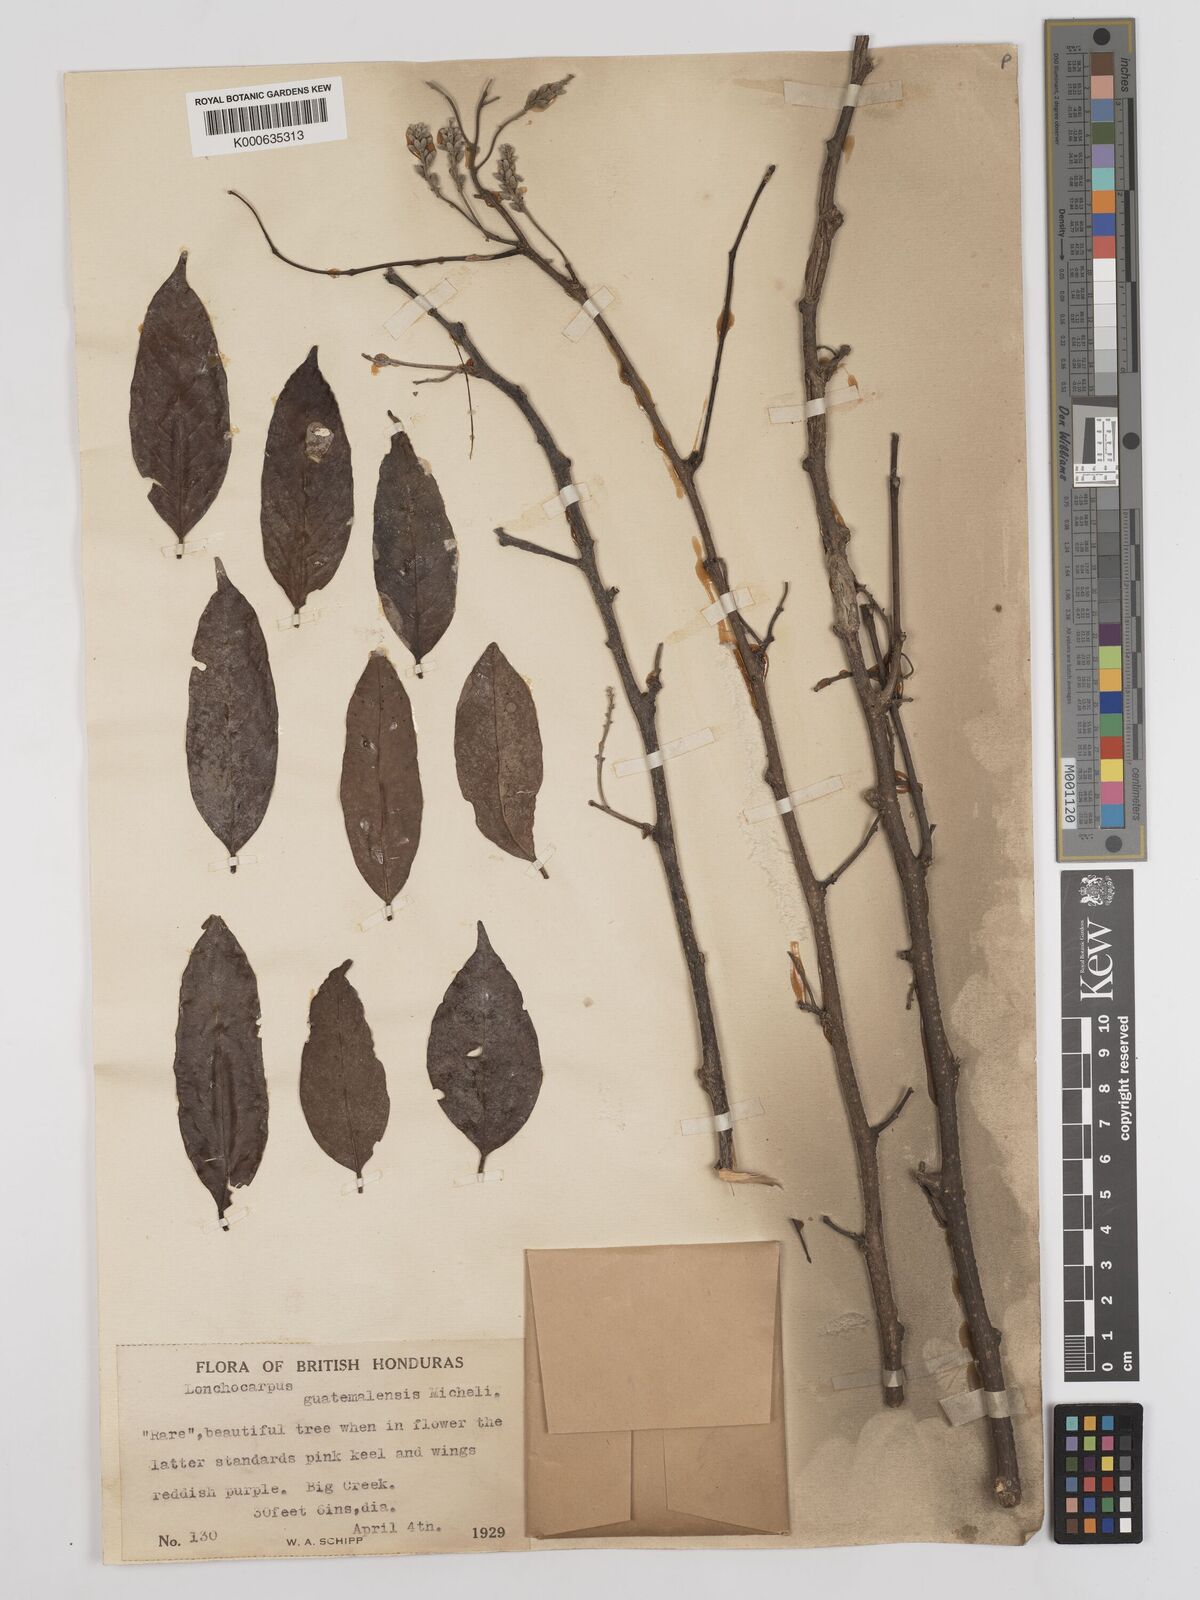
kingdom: Plantae
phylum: Tracheophyta
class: Magnoliopsida
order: Fabales
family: Fabaceae
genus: Lonchocarpus
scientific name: Lonchocarpus guatemalensis
